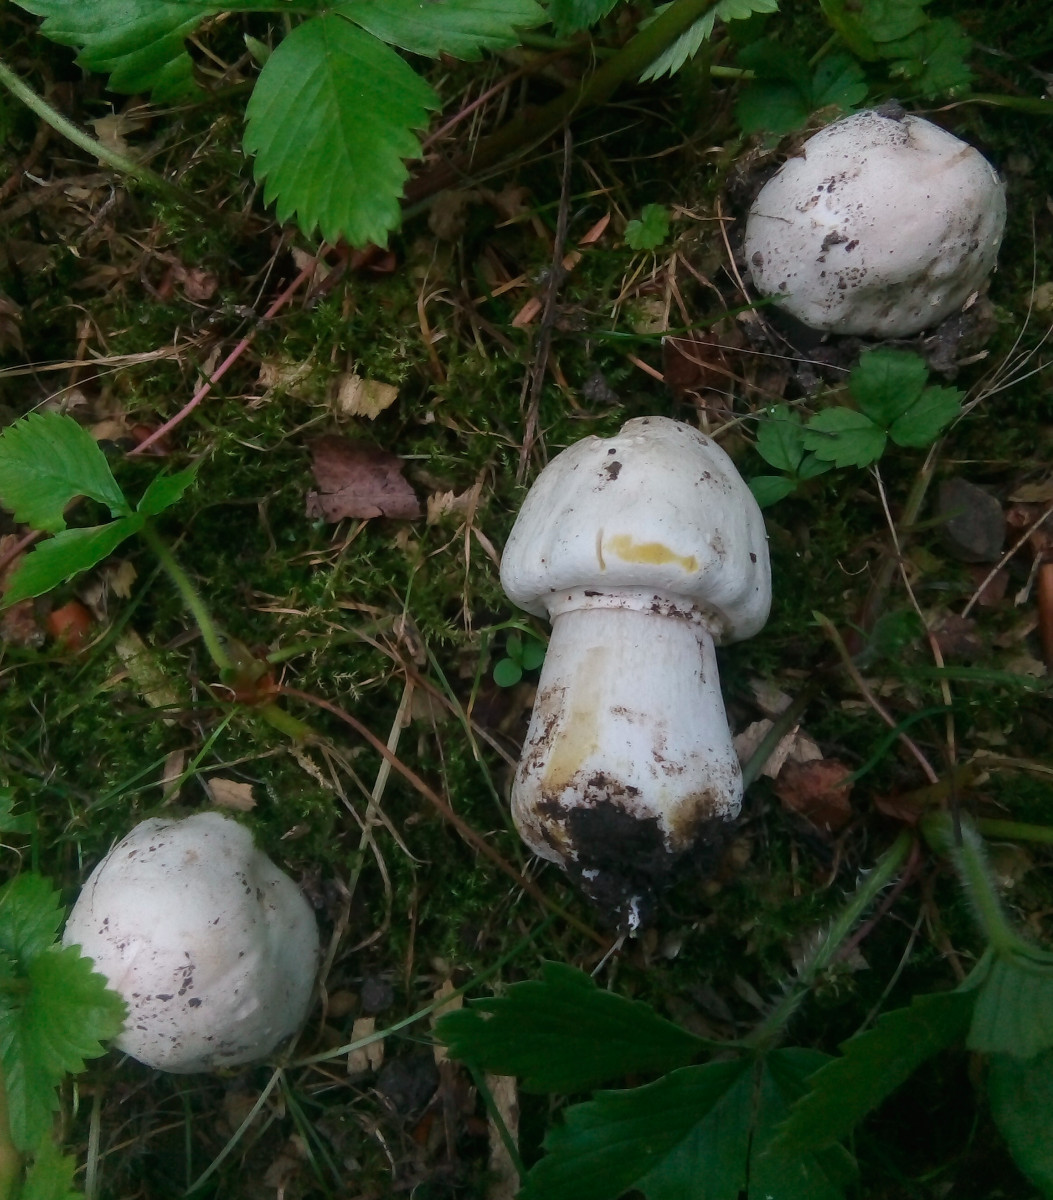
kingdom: Fungi
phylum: Basidiomycota
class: Agaricomycetes
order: Agaricales
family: Agaricaceae
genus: Agaricus
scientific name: Agaricus xanthodermus
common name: karbol-champignon
